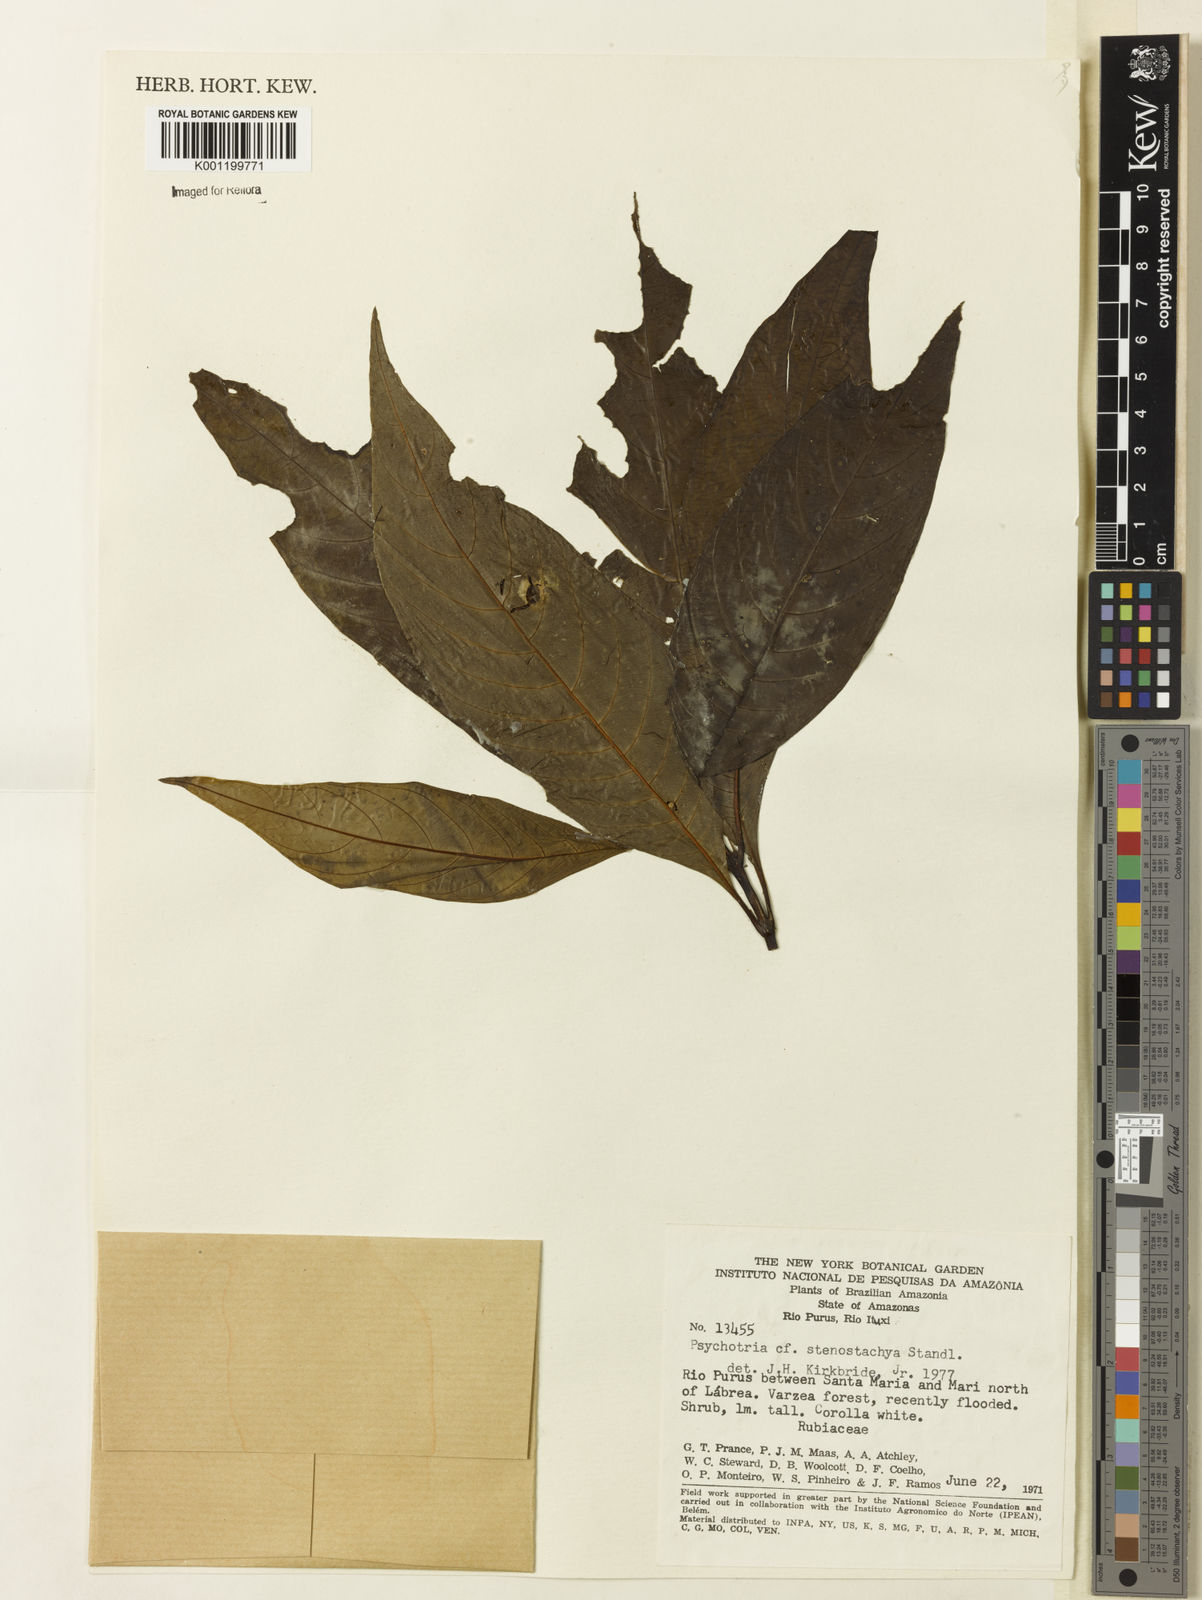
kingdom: Plantae
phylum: Tracheophyta
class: Magnoliopsida
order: Gentianales
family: Rubiaceae
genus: Palicourea
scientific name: Palicourea stenostachya
